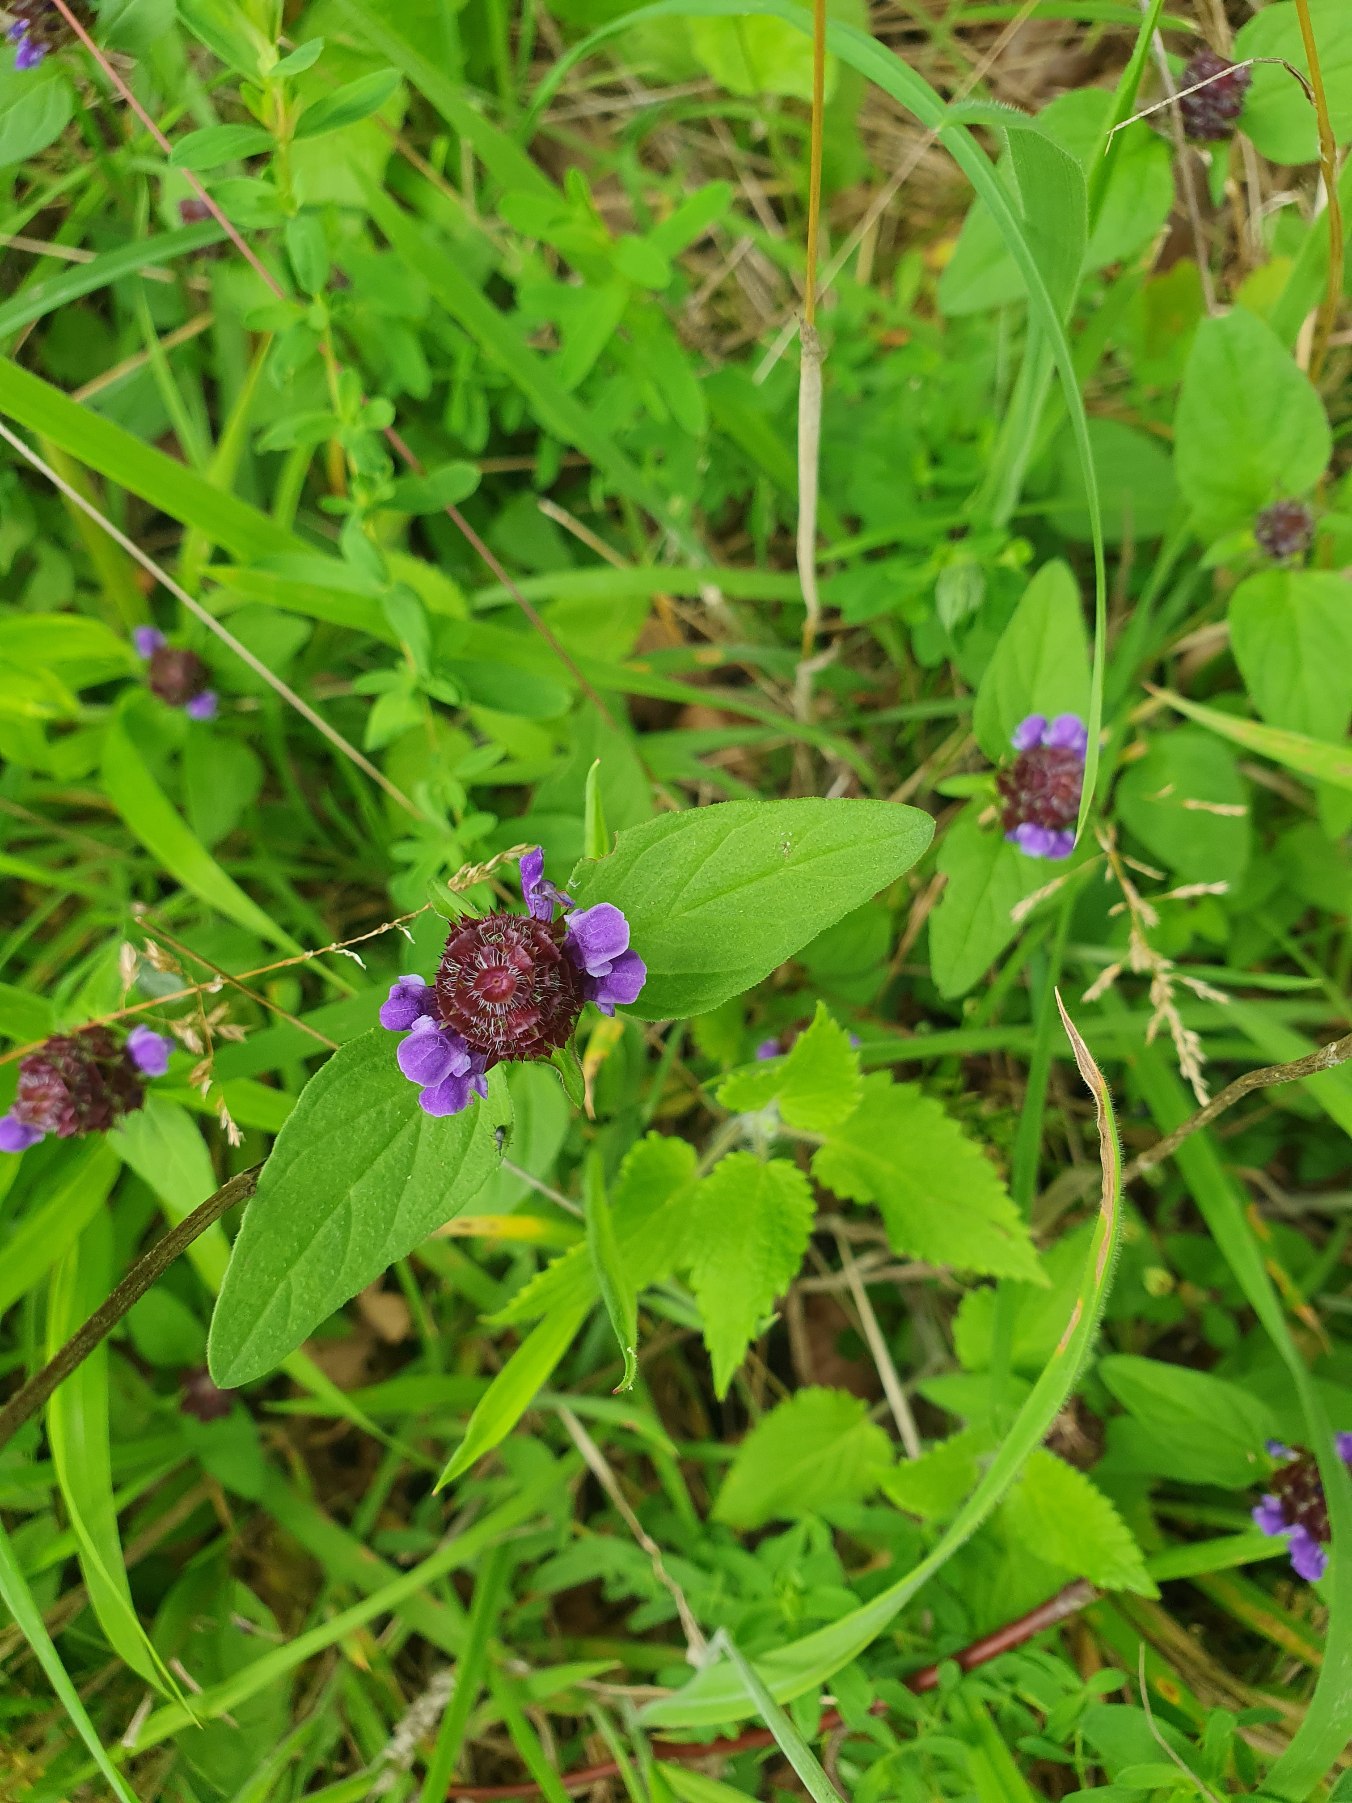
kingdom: Plantae
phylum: Tracheophyta
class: Magnoliopsida
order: Lamiales
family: Lamiaceae
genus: Prunella
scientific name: Prunella vulgaris
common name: Almindelig brunelle
